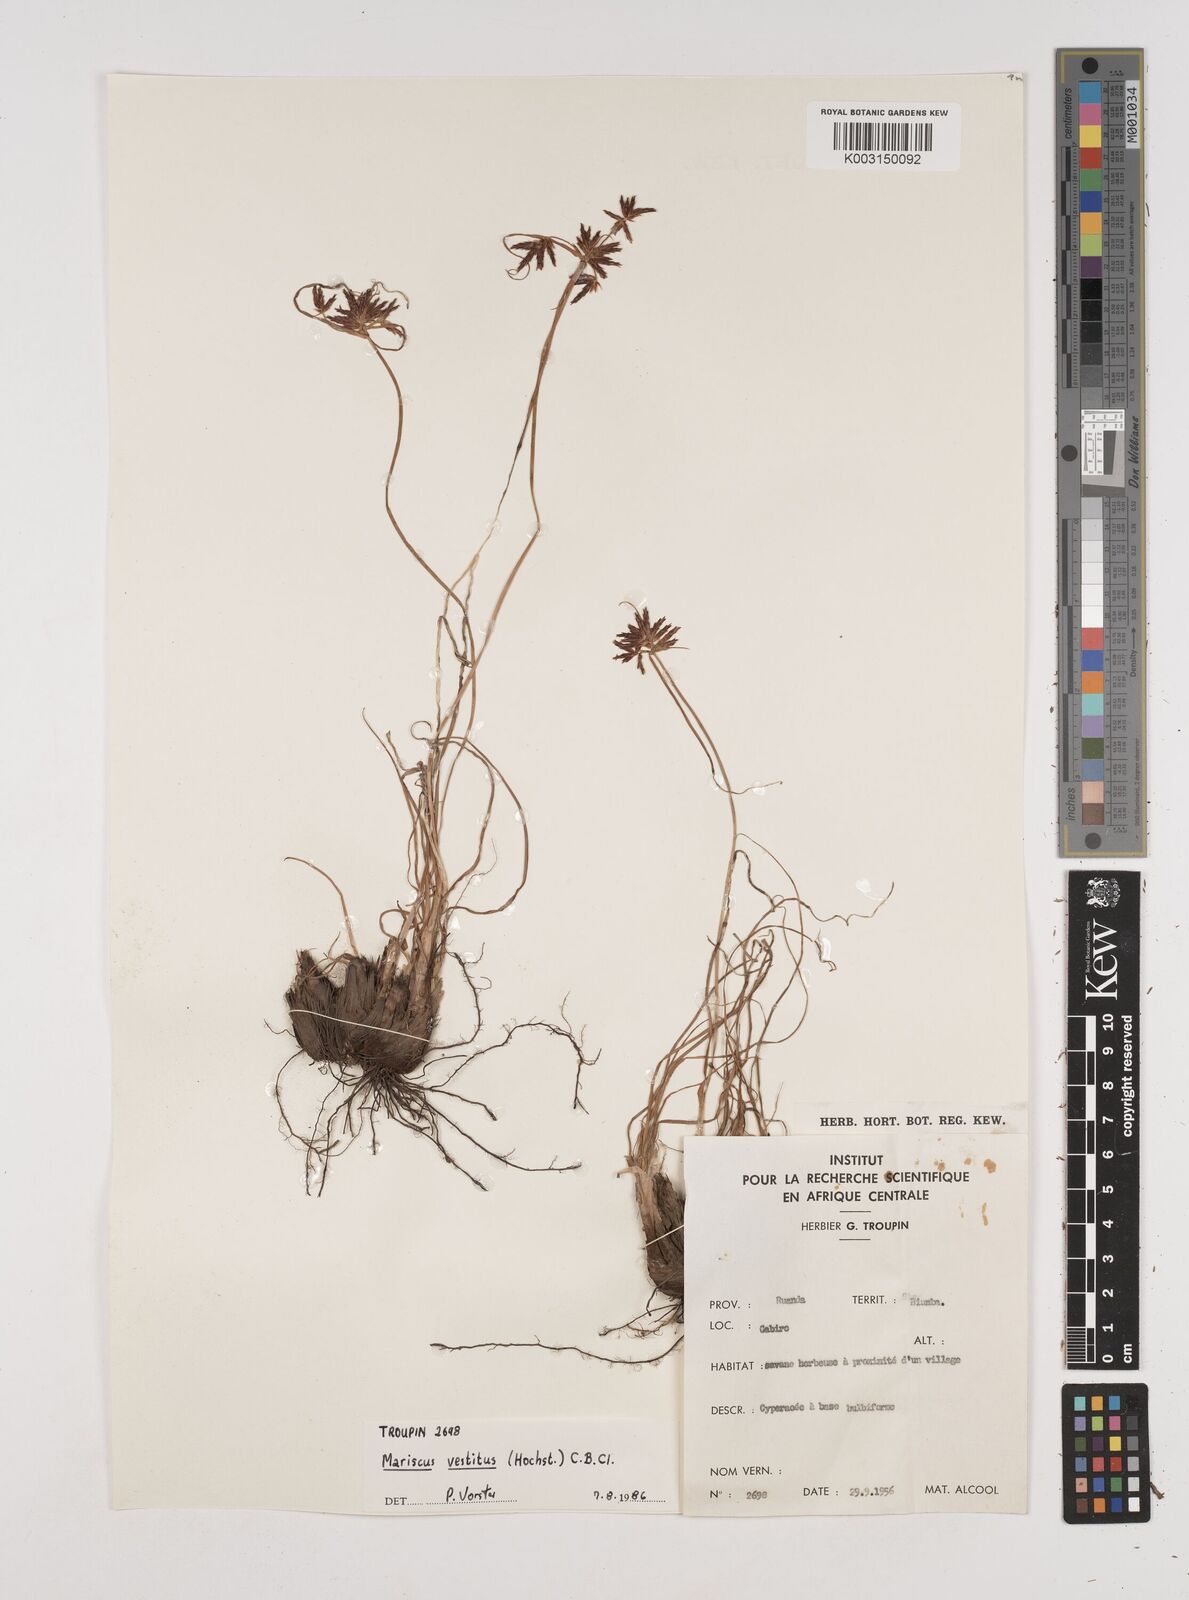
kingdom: Plantae
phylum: Tracheophyta
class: Liliopsida
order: Poales
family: Cyperaceae
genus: Cyperus
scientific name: Cyperus vestitus
